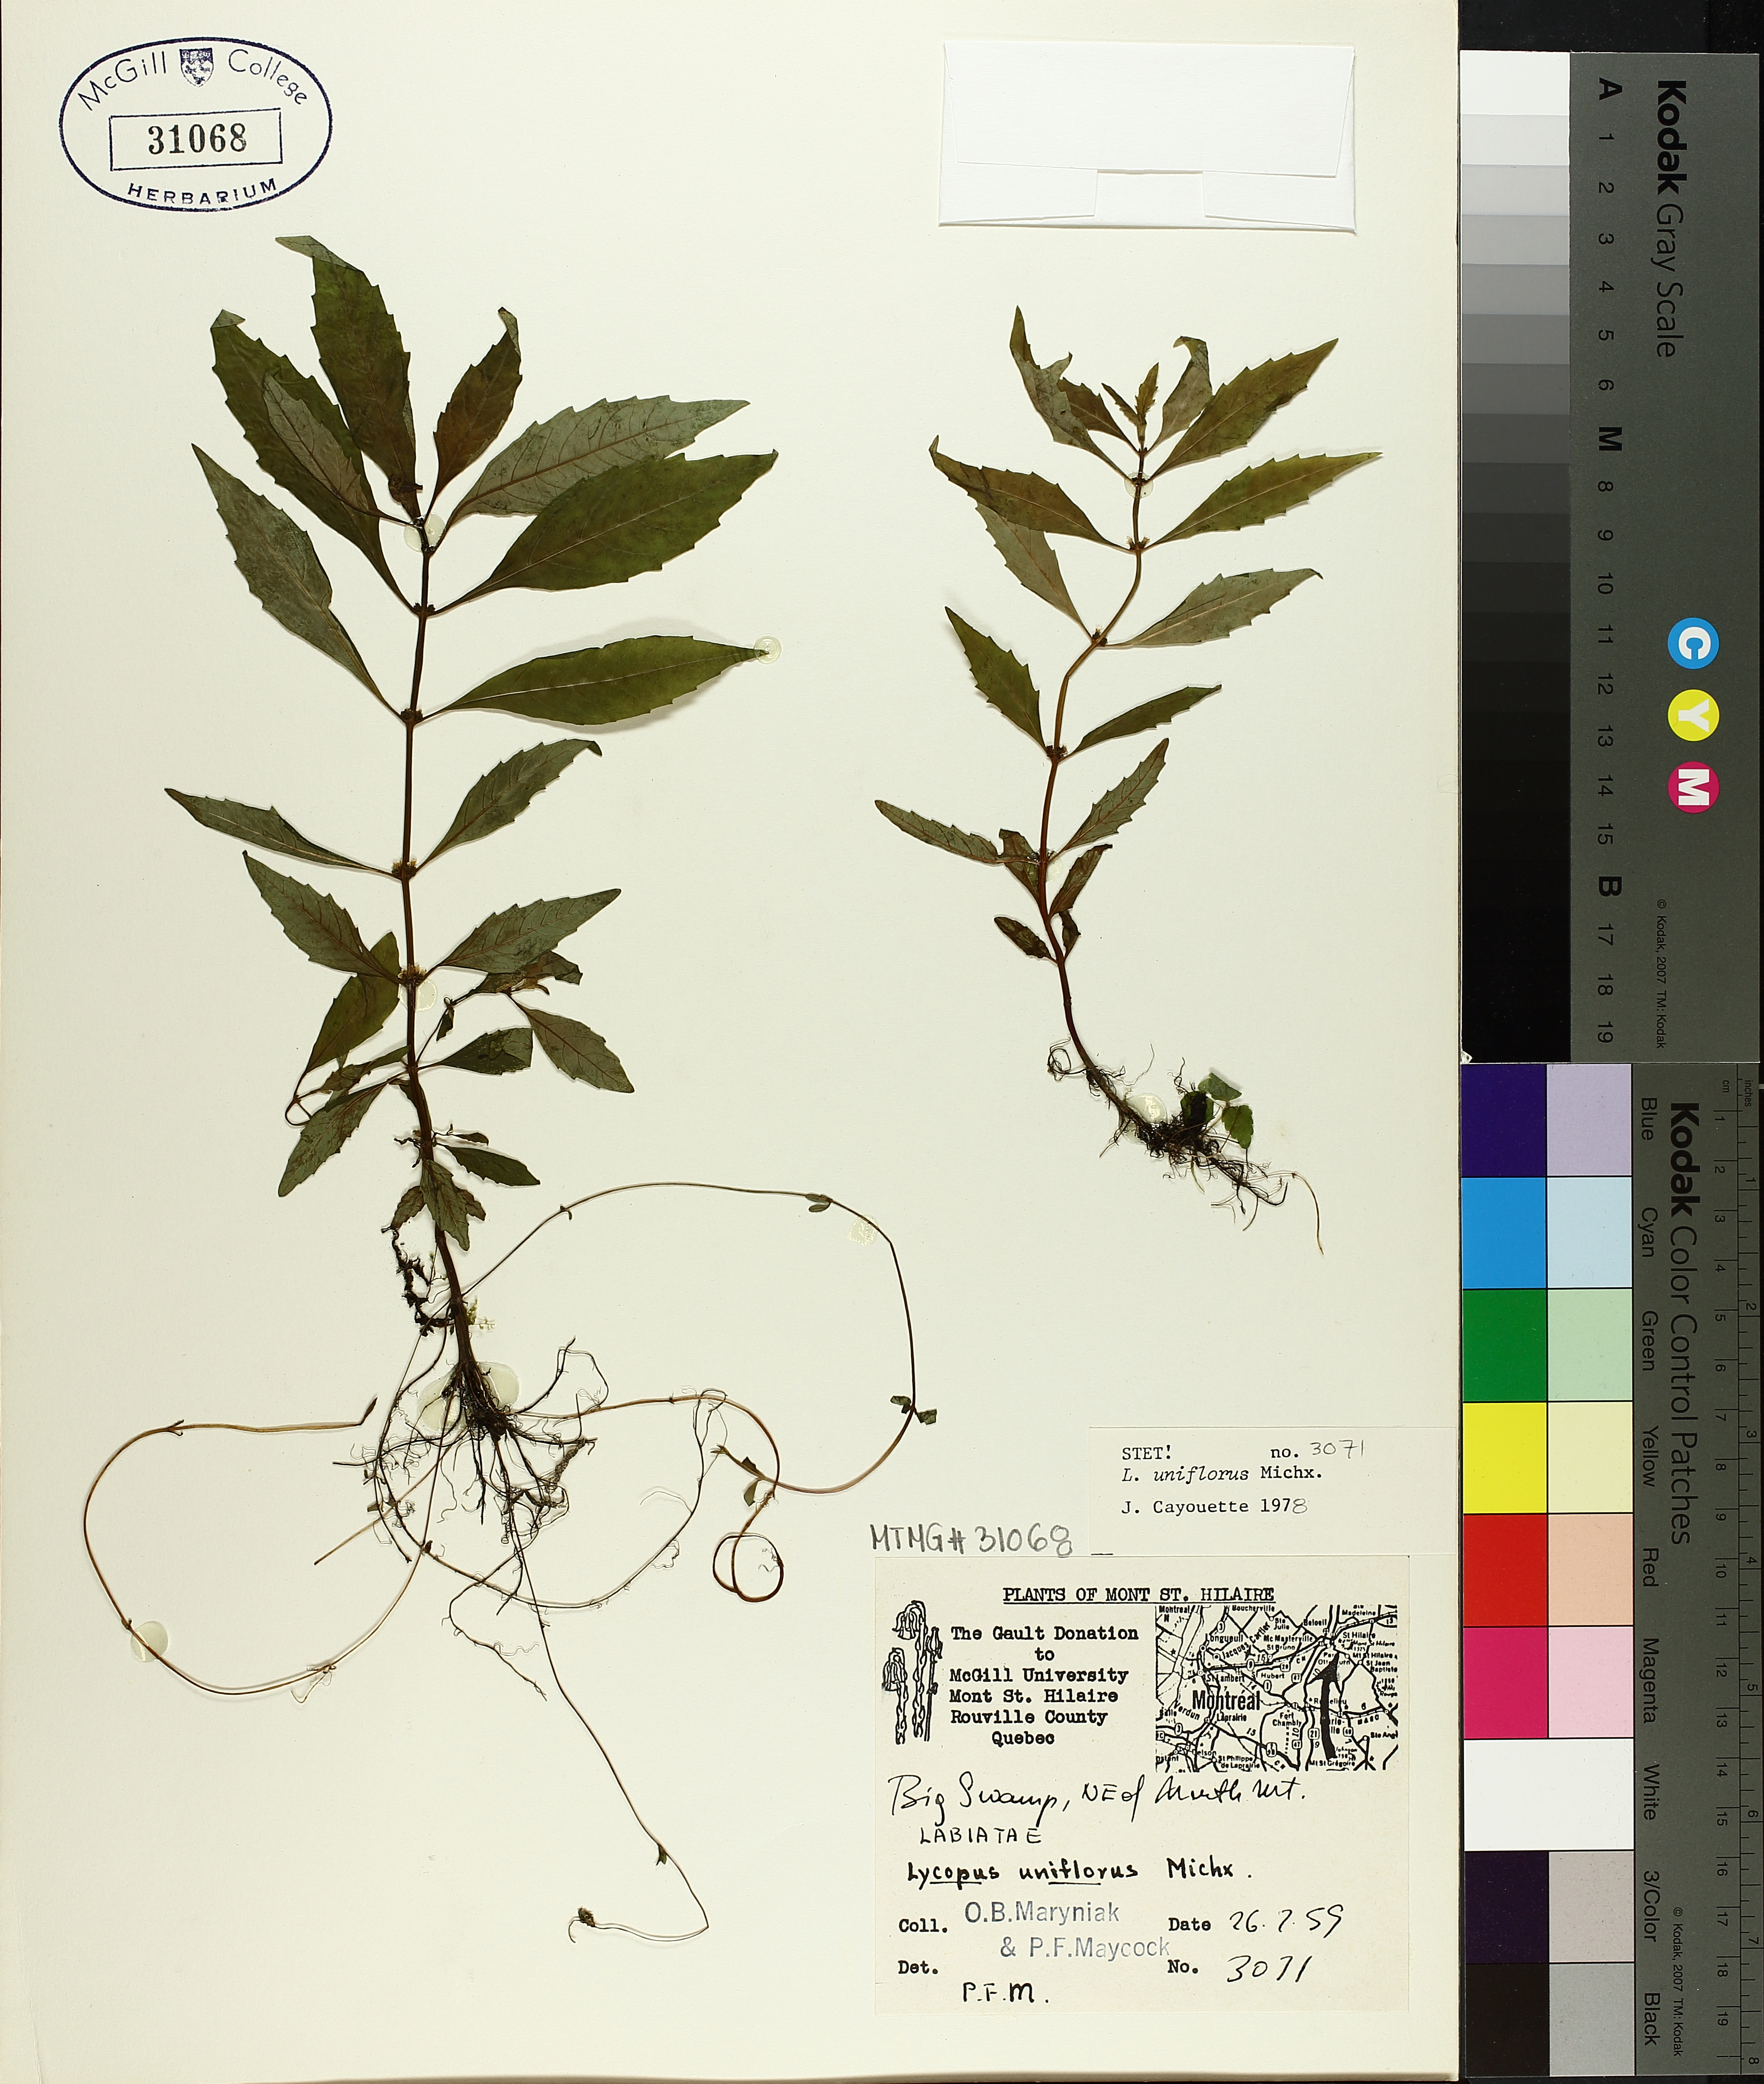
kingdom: Plantae
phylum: Tracheophyta
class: Magnoliopsida
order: Lamiales
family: Lamiaceae
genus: Lycopus
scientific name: Lycopus uniflorus
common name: Northern bugleweed
